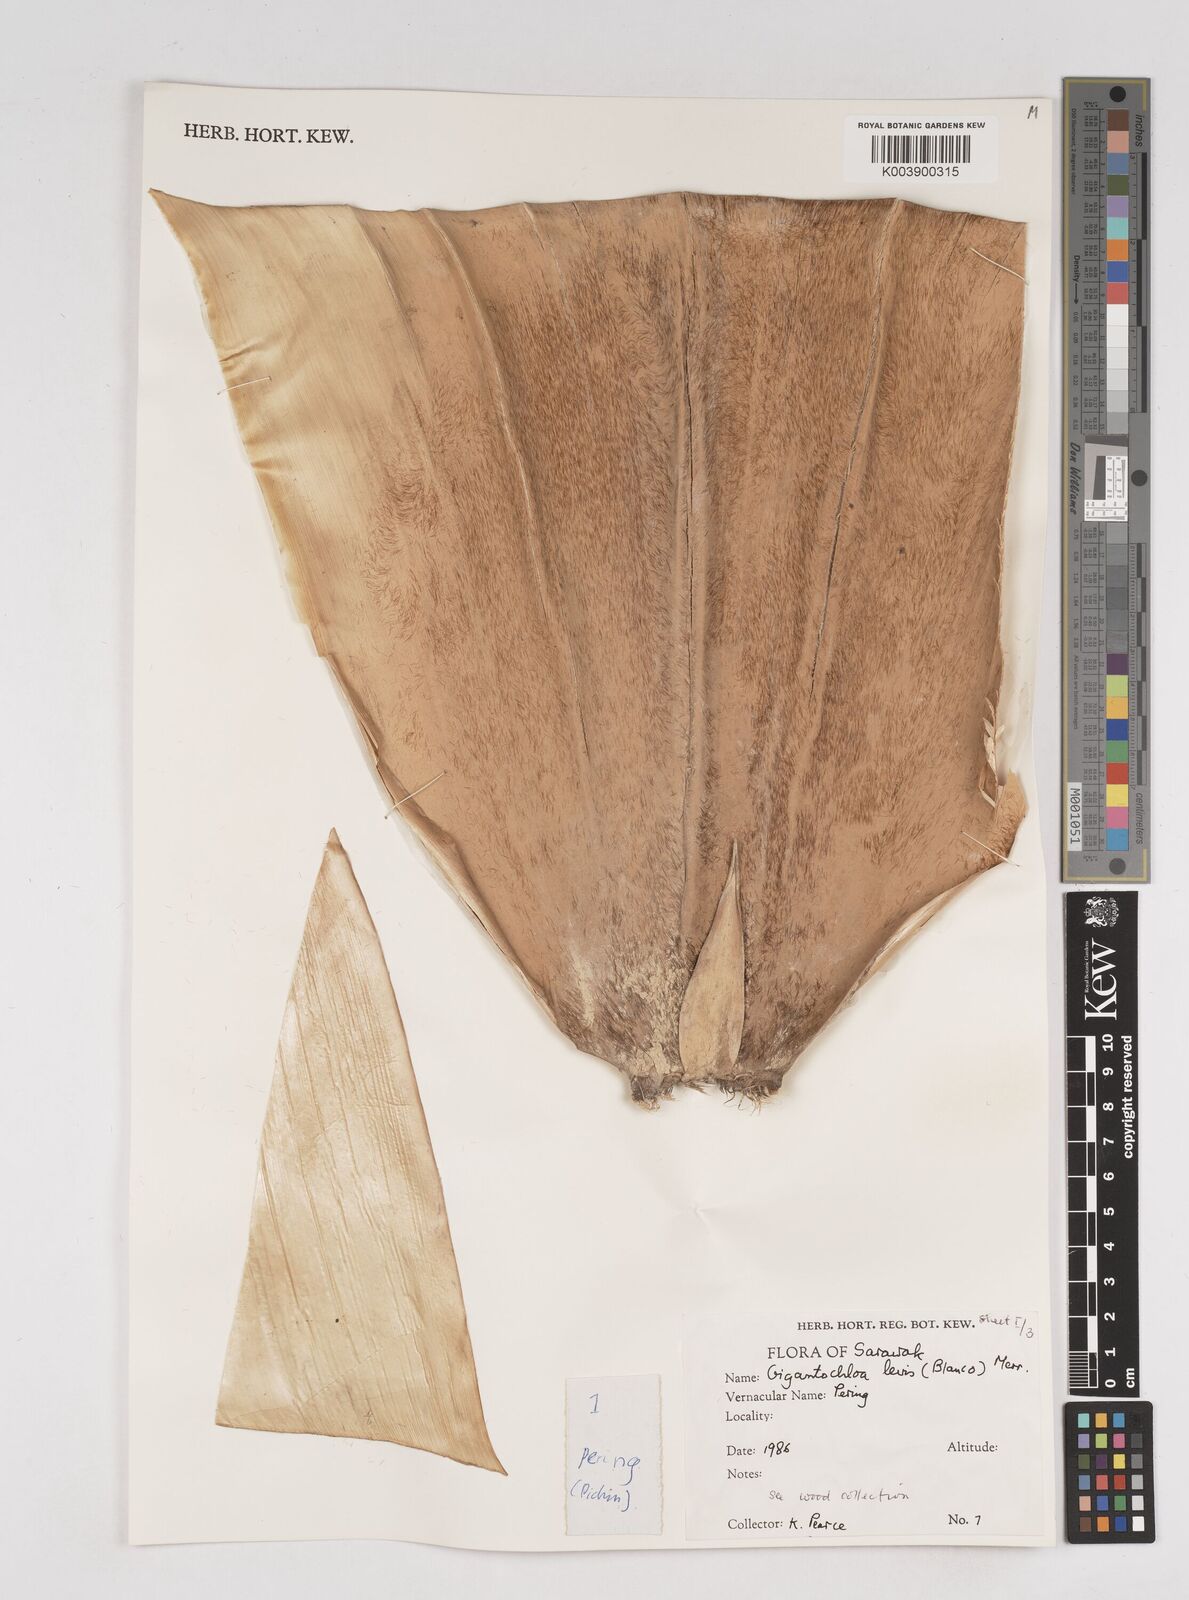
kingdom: Plantae
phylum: Tracheophyta
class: Liliopsida
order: Poales
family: Poaceae
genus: Gigantochloa
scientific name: Gigantochloa levis
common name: Smooth-shoot gigantochloa
